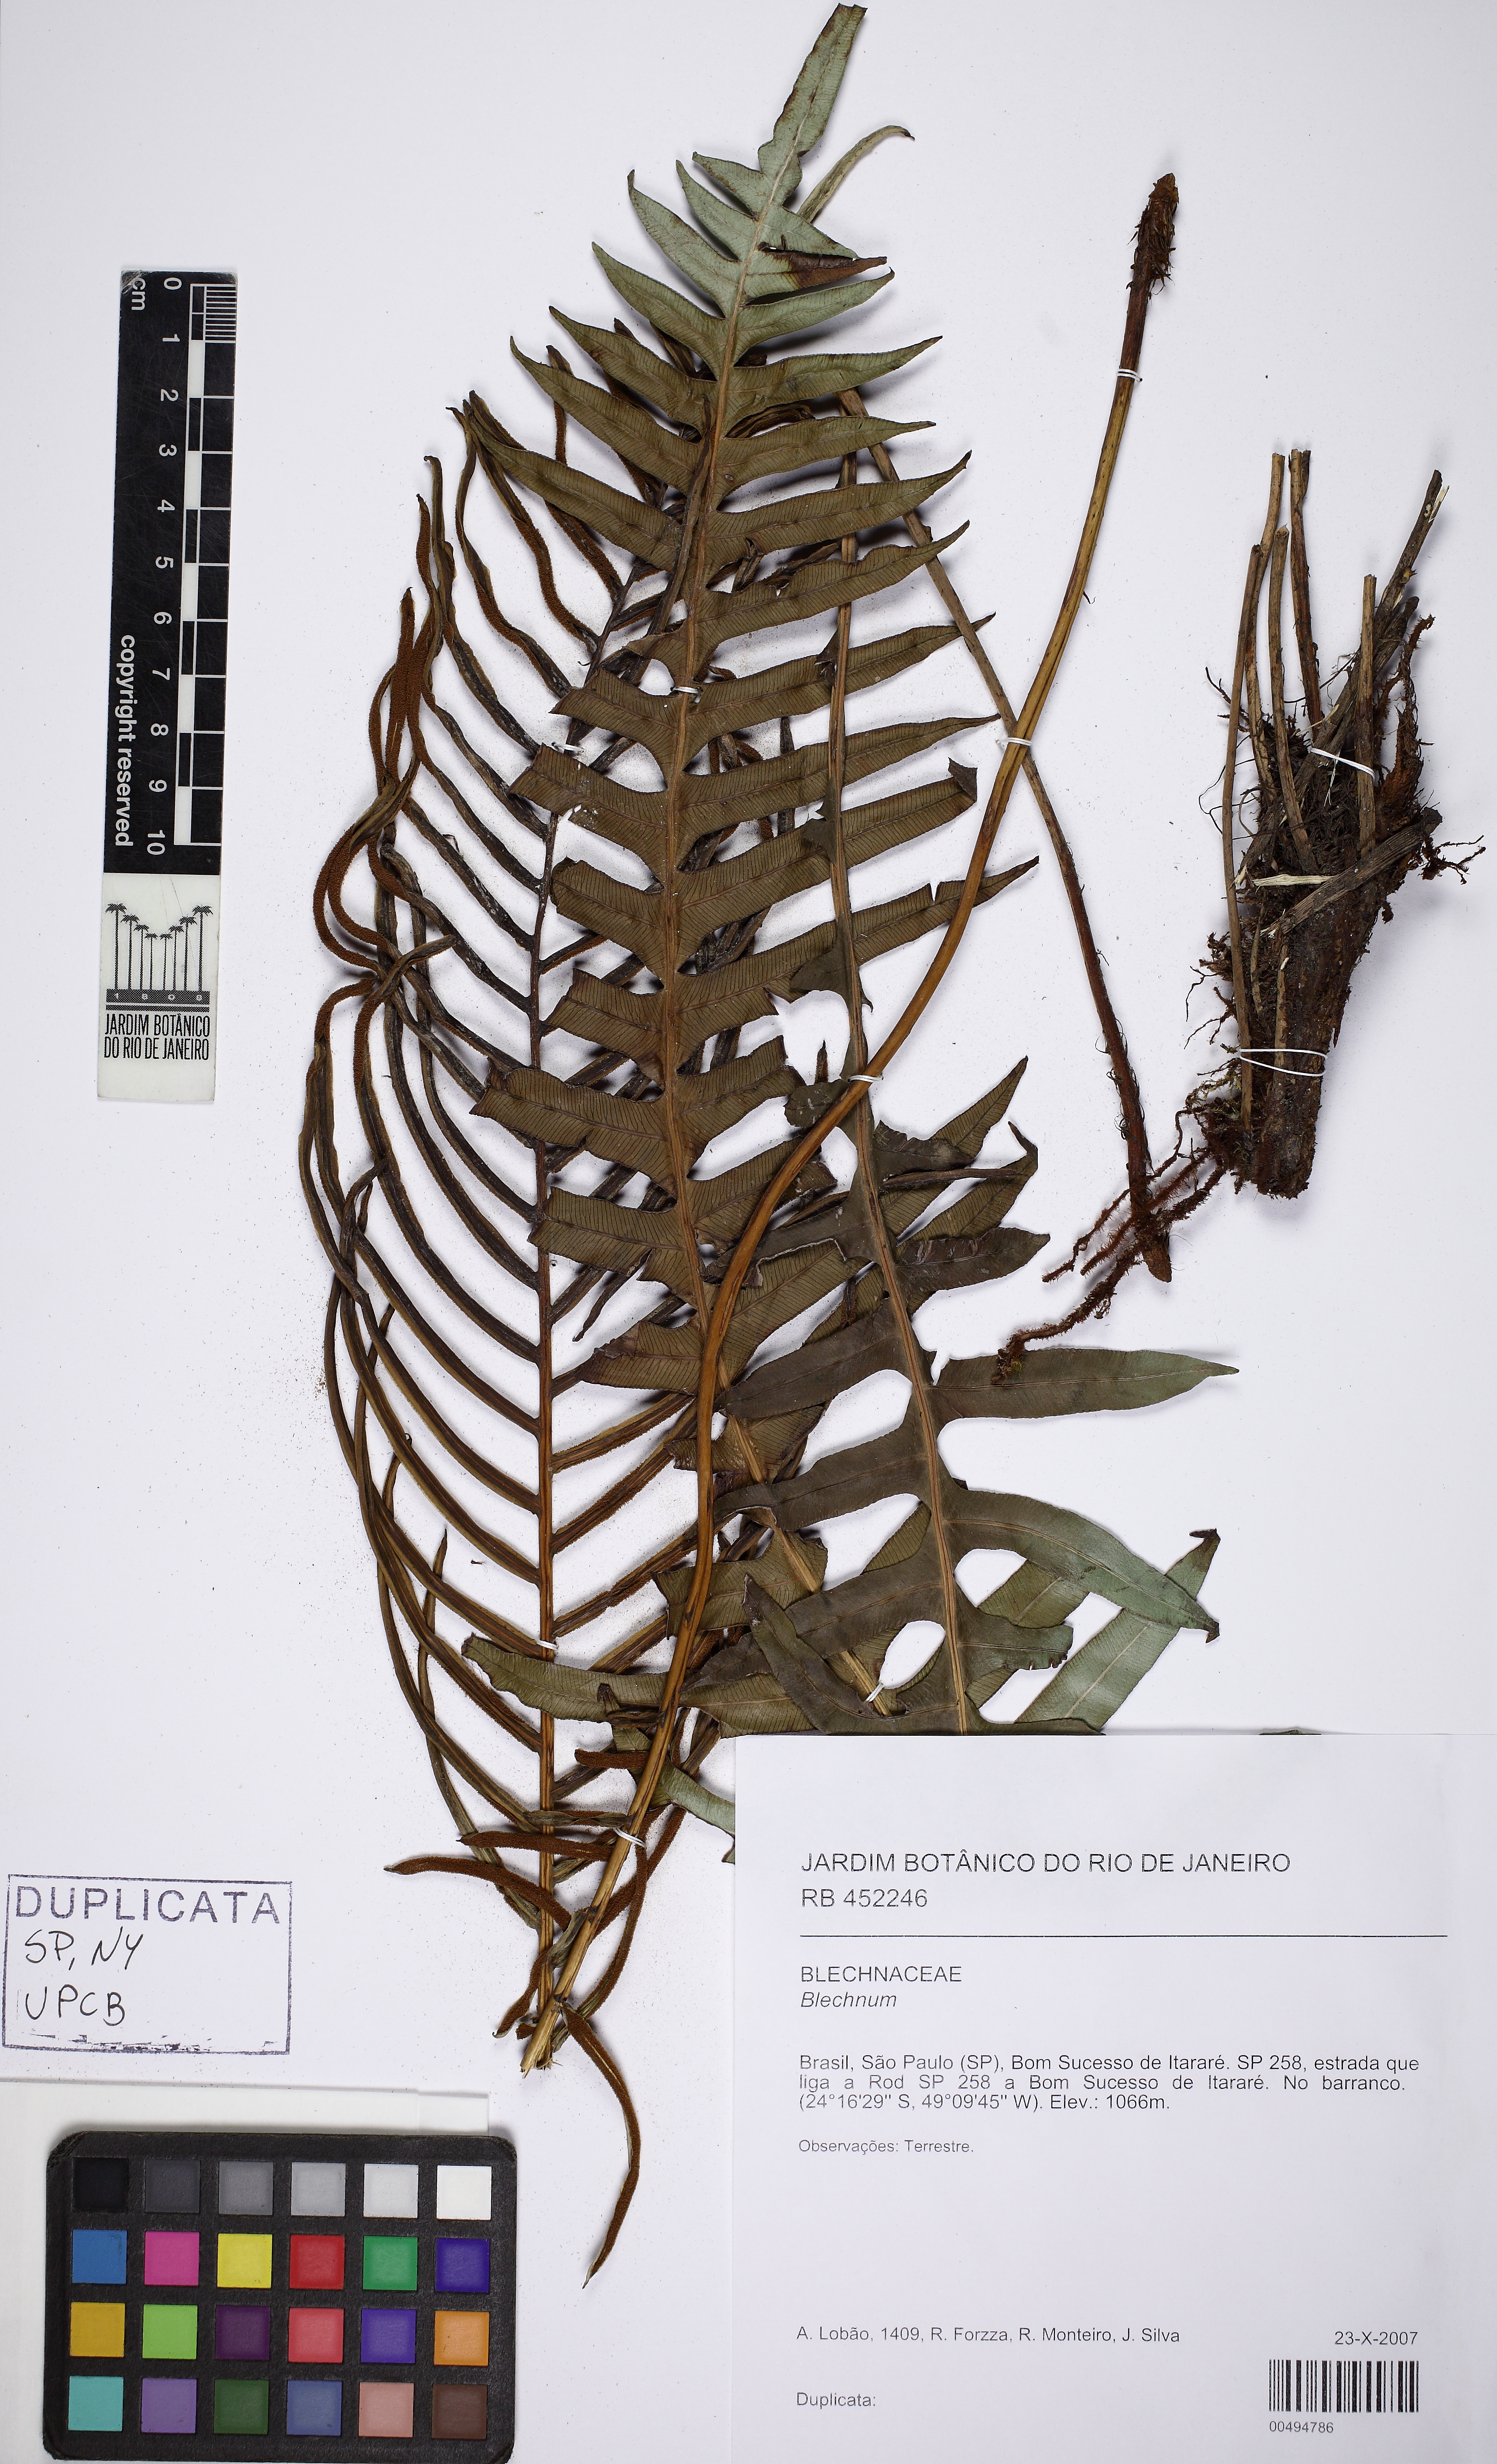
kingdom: Plantae
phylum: Tracheophyta
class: Polypodiopsida
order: Polypodiales
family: Blechnaceae
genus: Lomaridium
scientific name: Lomaridium acutum
